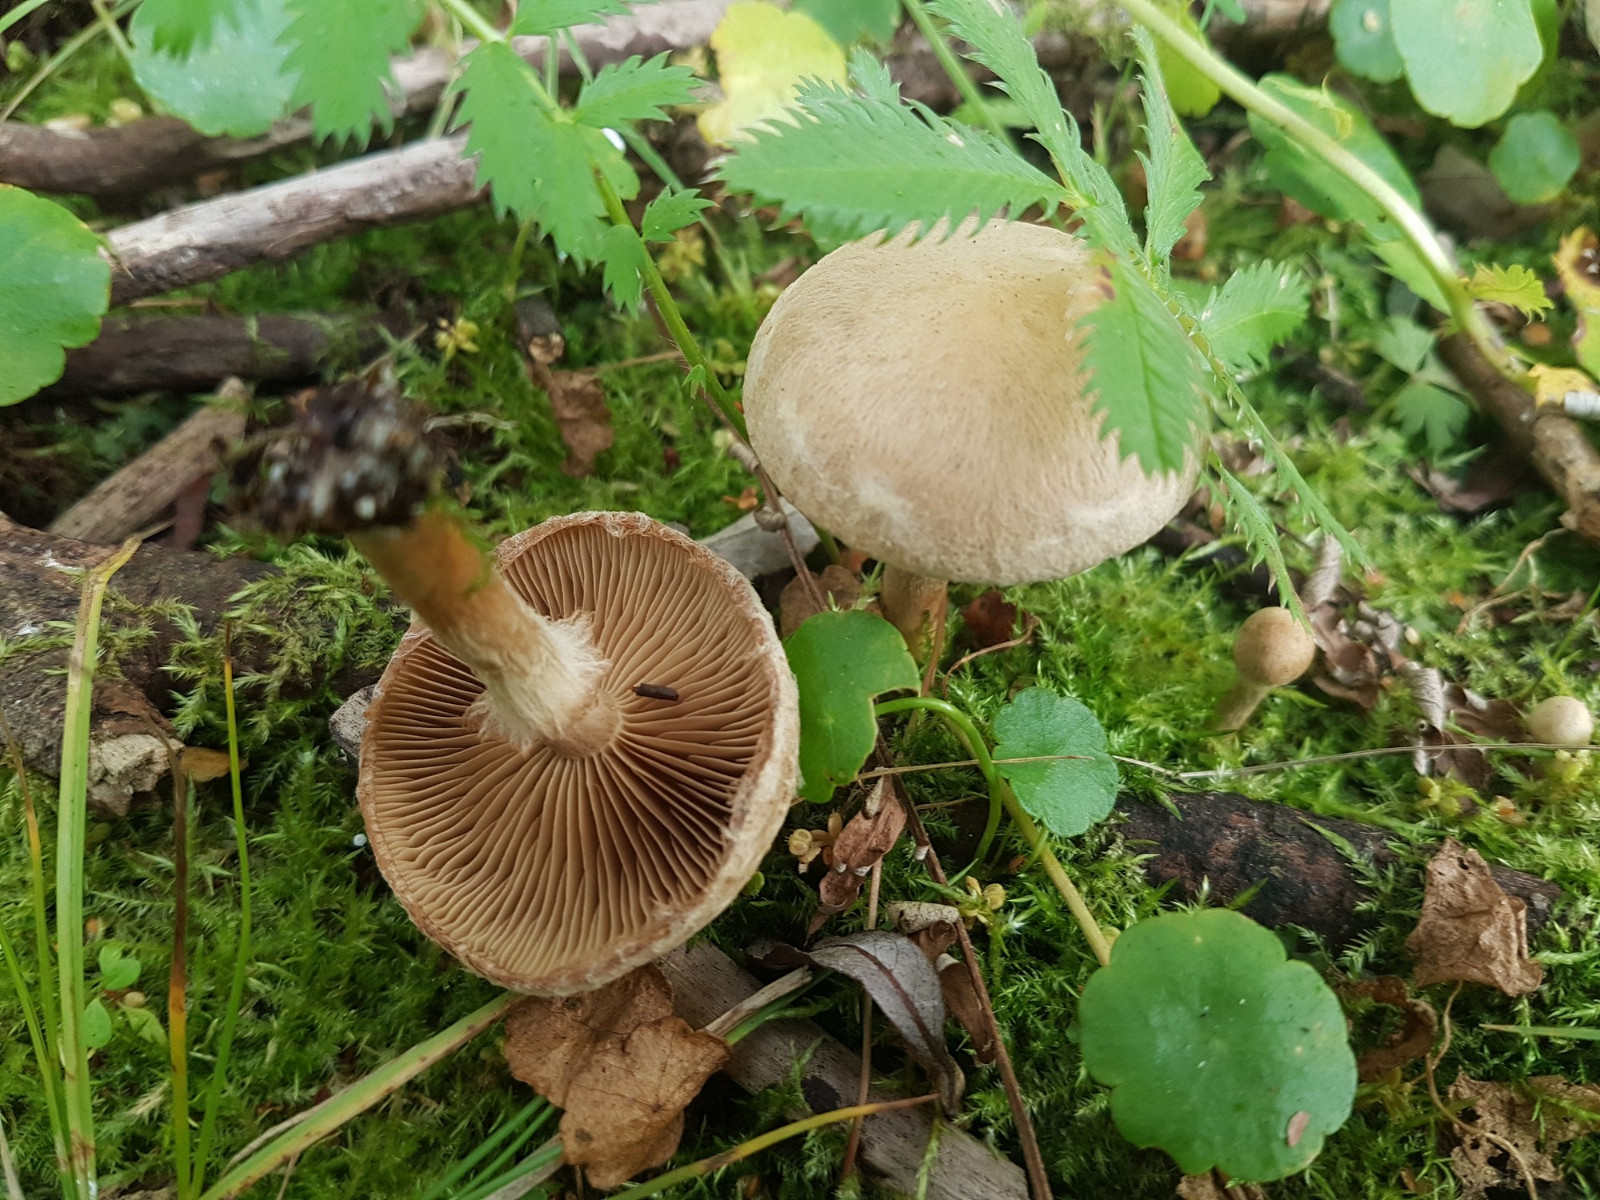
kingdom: Fungi
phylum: Basidiomycota
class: Agaricomycetes
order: Agaricales
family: Inocybaceae
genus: Mallocybe
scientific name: Mallocybe agardhii
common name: Agardhs trævlhat
